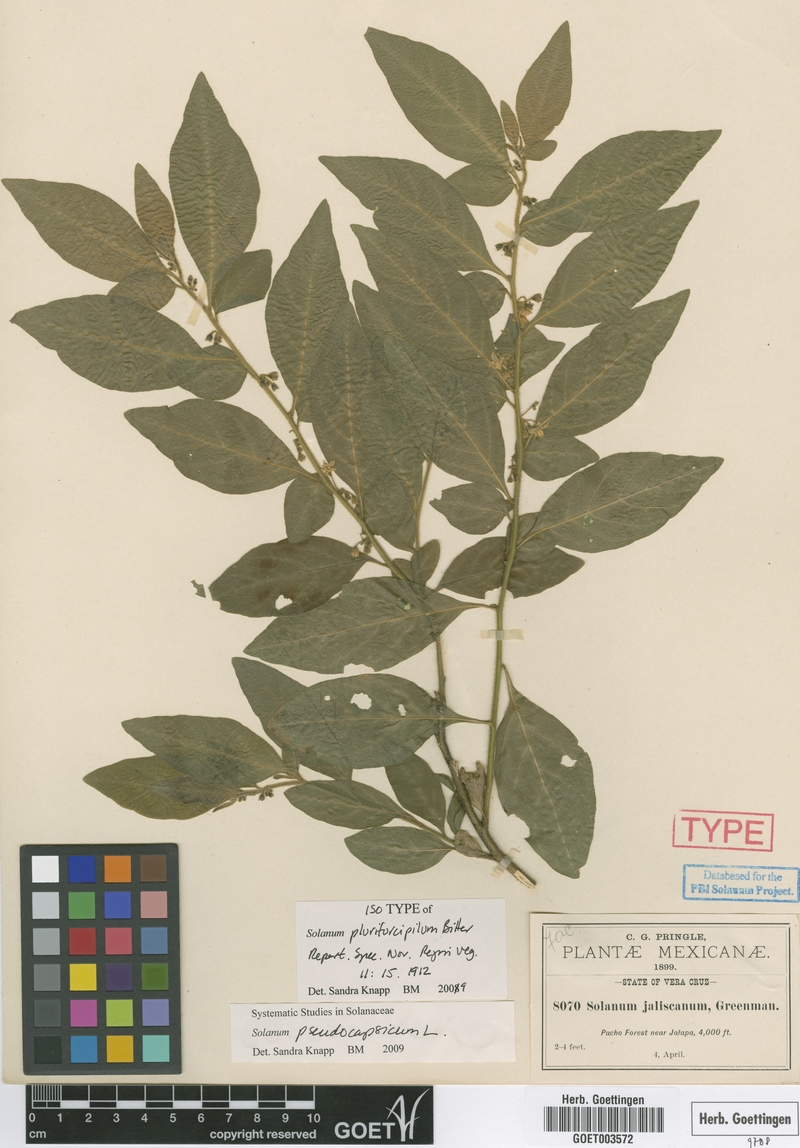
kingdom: Plantae
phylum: Tracheophyta
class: Magnoliopsida
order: Solanales
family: Solanaceae
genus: Solanum
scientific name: Solanum pseudocapsicum
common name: Jerusalem cherry
